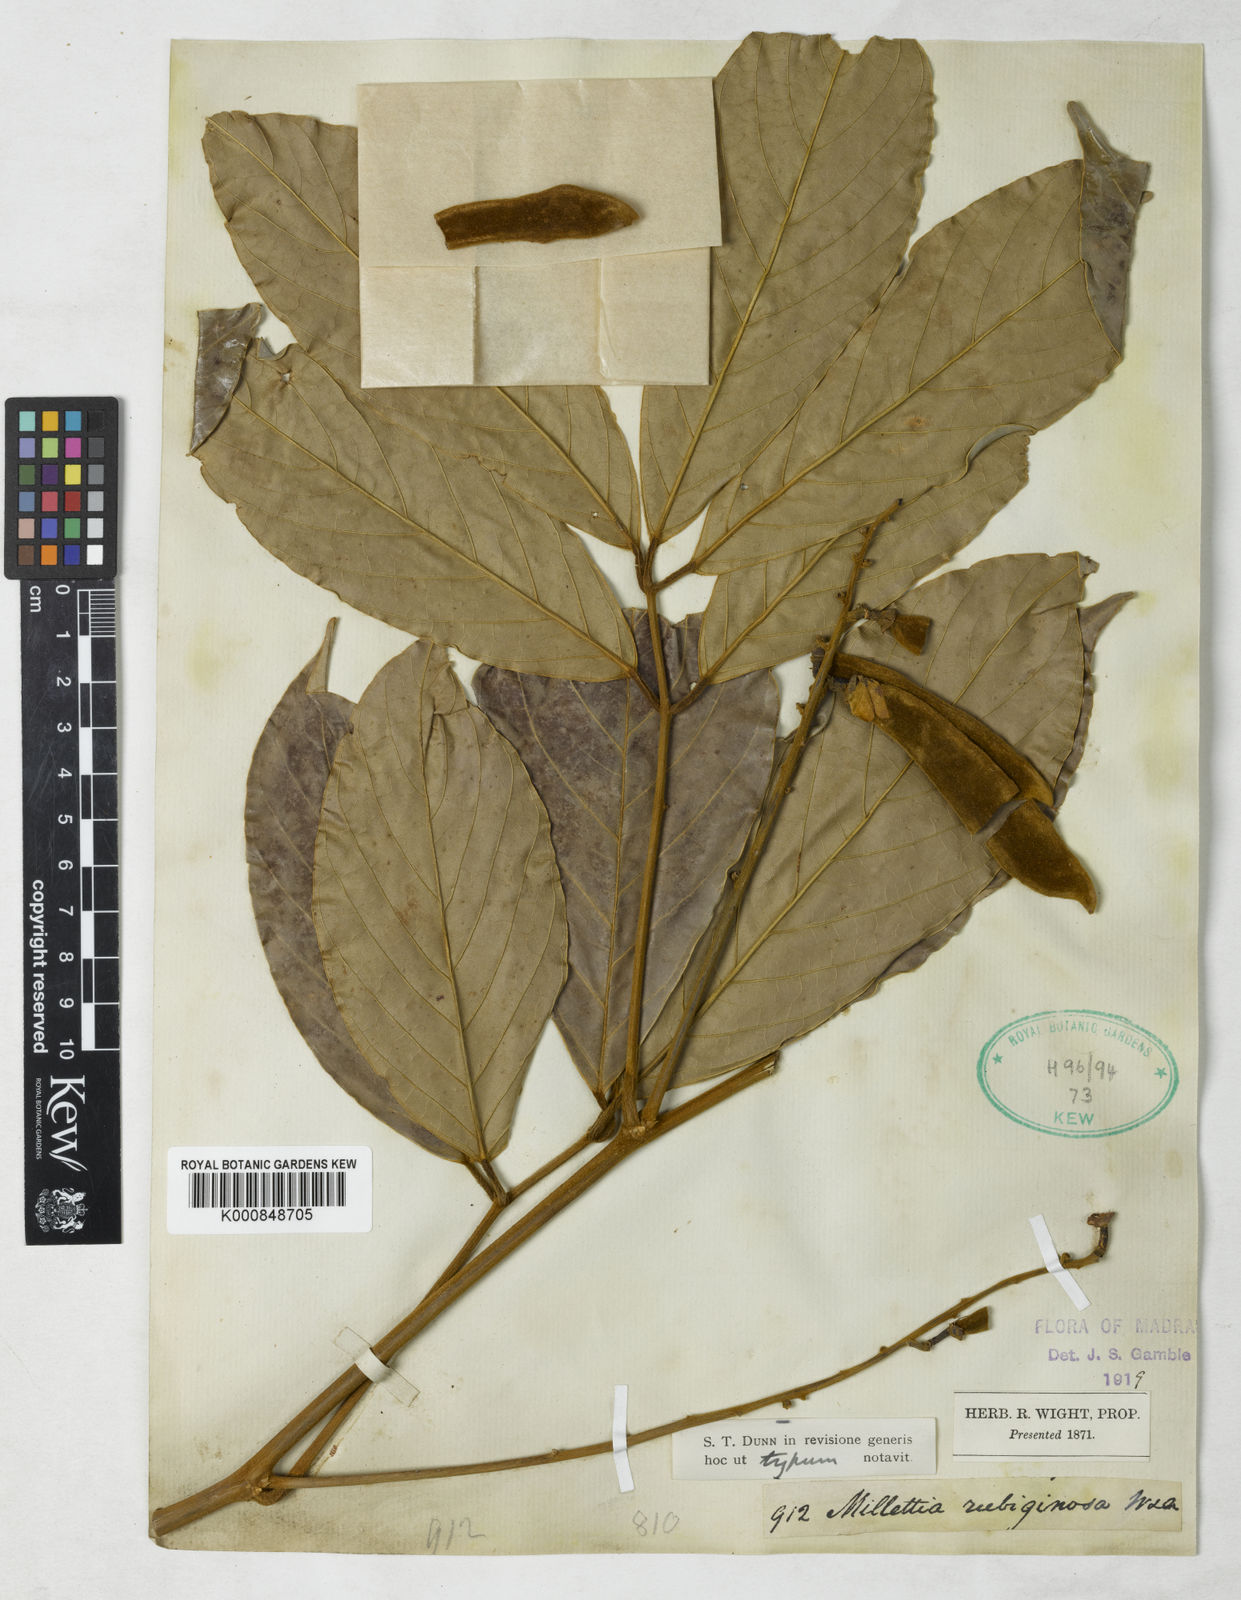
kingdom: Plantae
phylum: Tracheophyta
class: Magnoliopsida
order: Fabales
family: Fabaceae
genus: Millettia
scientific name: Millettia rubiginosa
